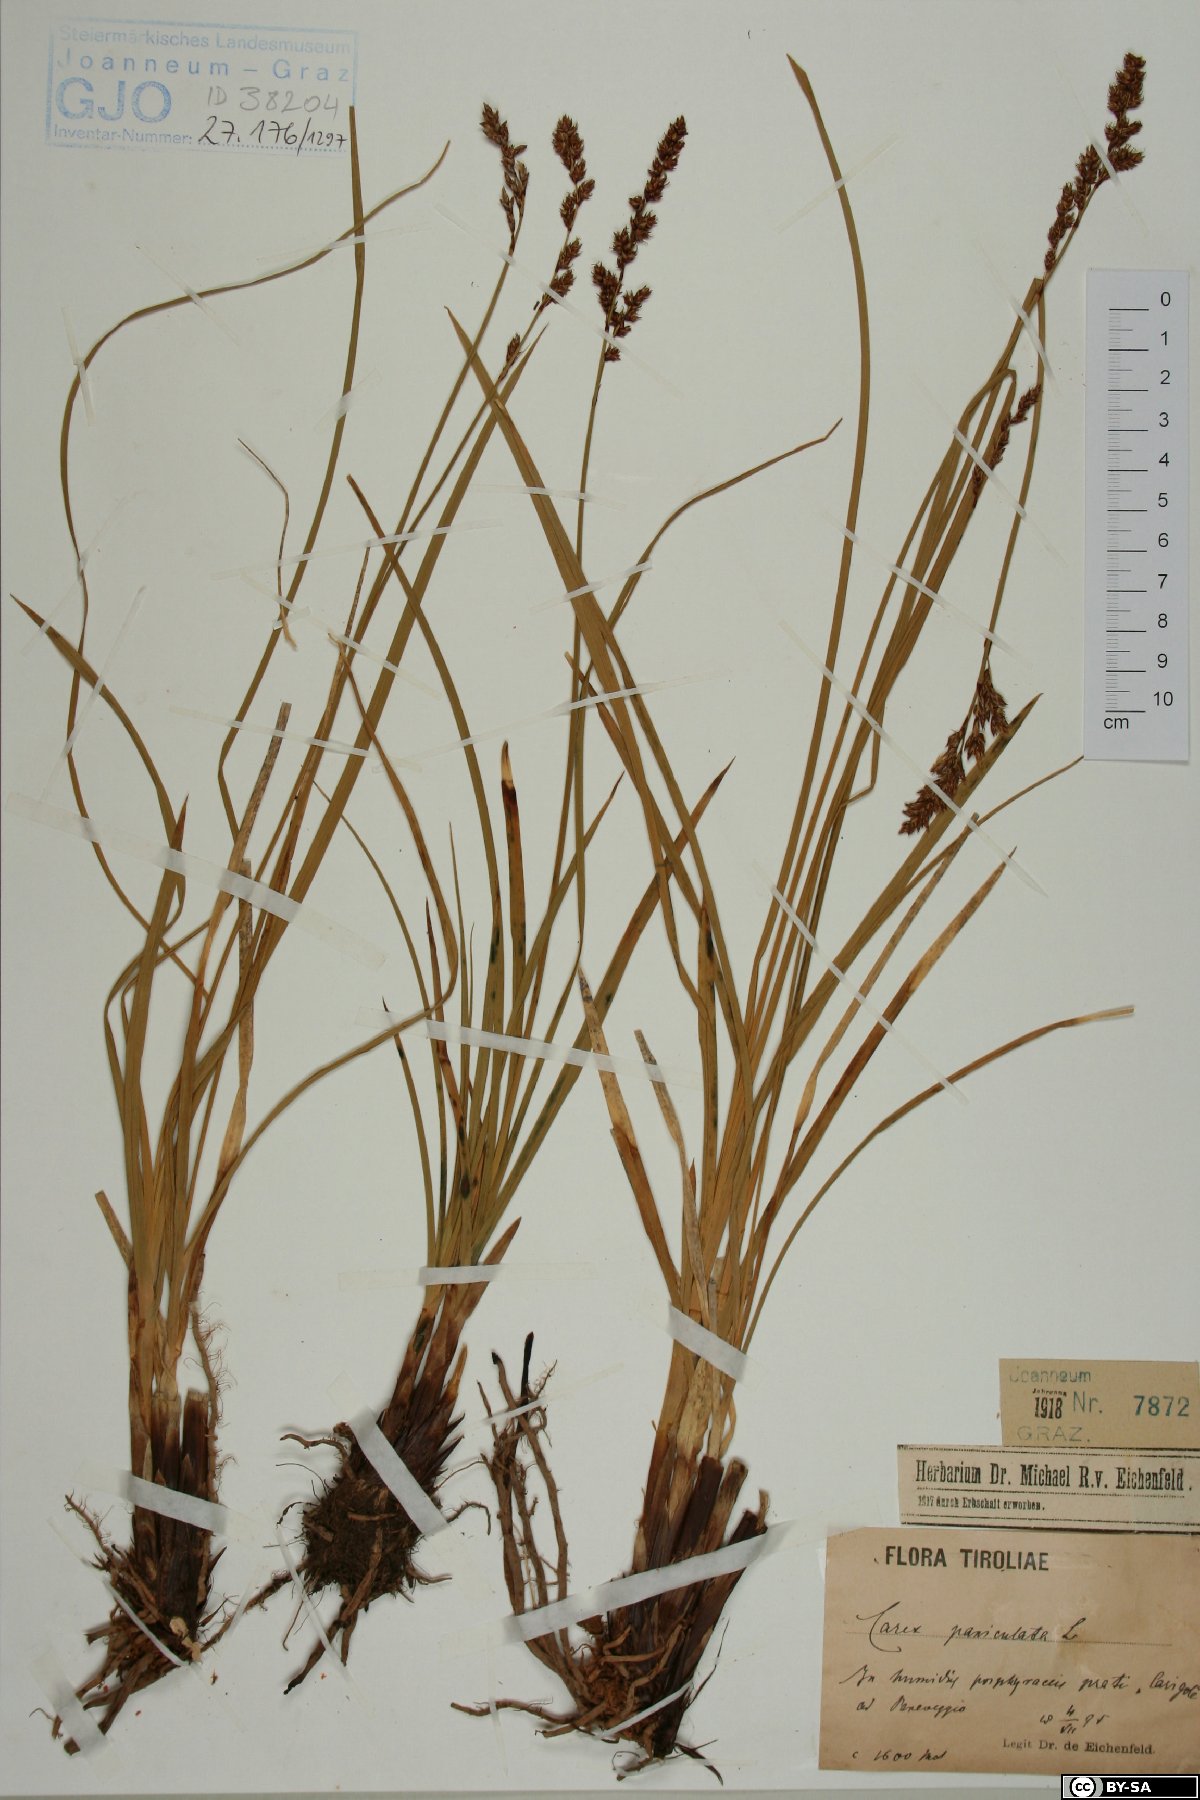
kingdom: Plantae
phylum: Tracheophyta
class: Liliopsida
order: Poales
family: Cyperaceae
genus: Carex
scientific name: Carex paniculata
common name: Greater tussock-sedge
